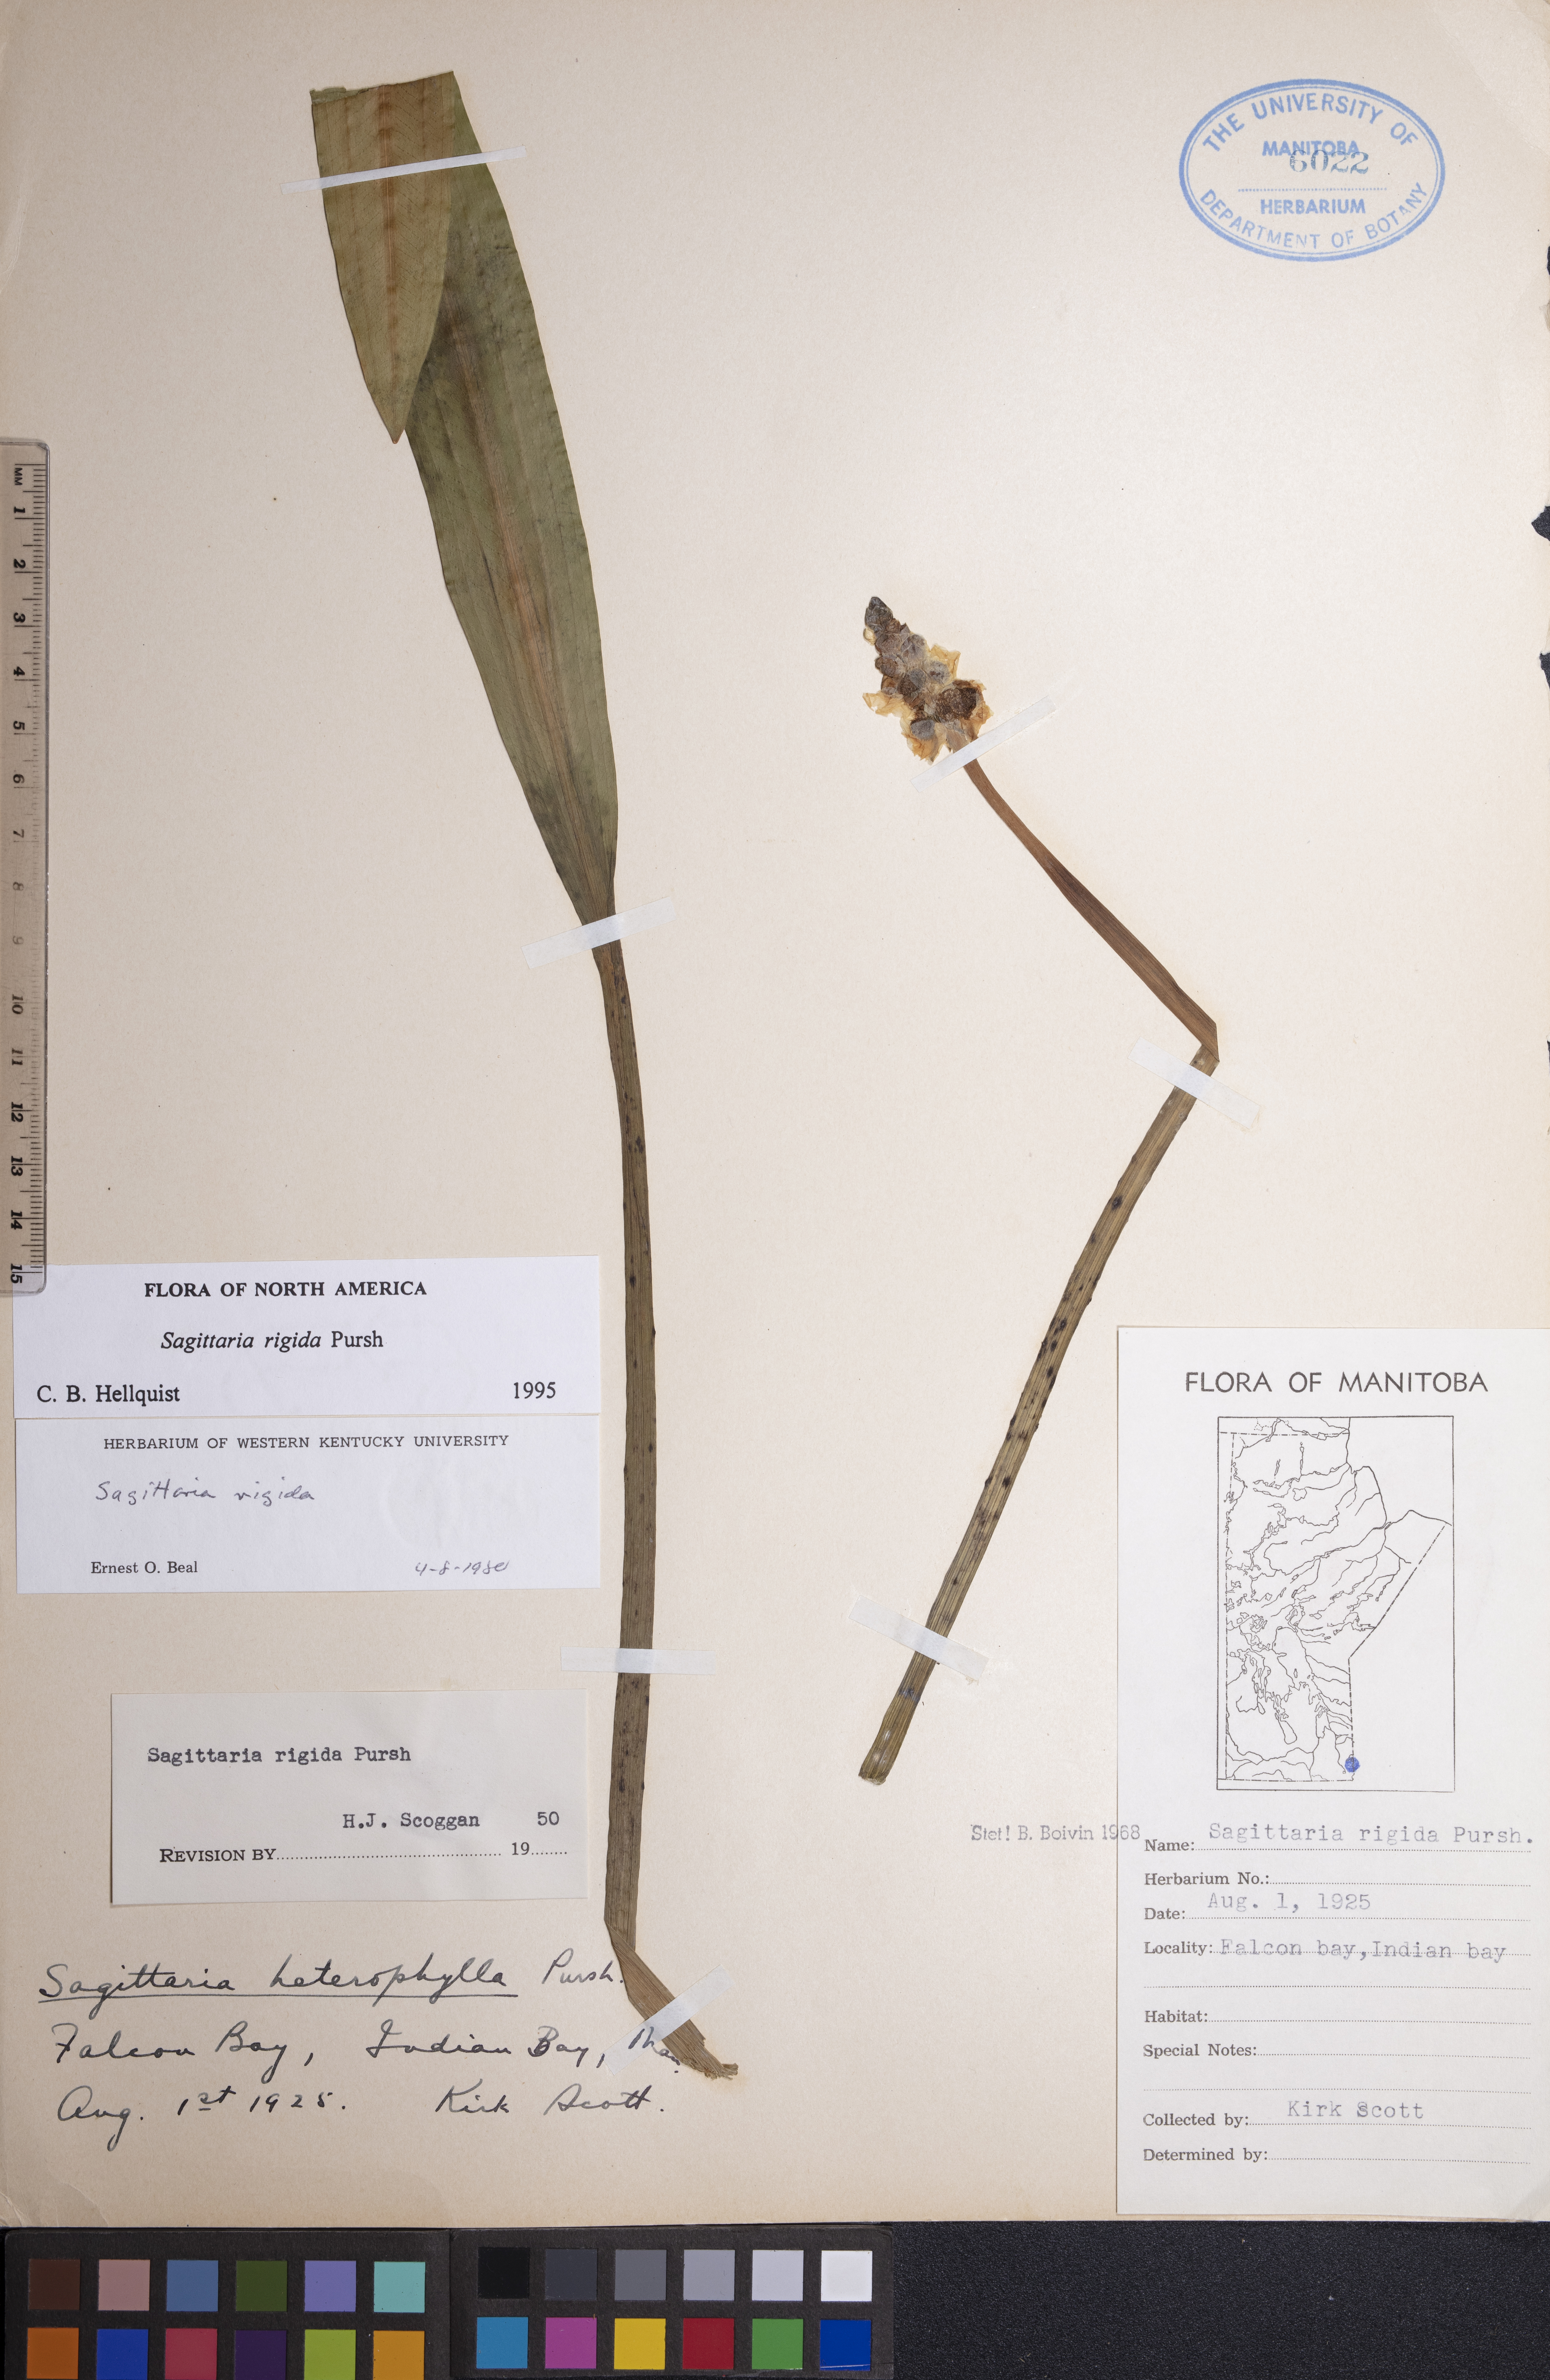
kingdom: Plantae
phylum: Tracheophyta
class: Liliopsida
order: Alismatales
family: Alismataceae
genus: Sagittaria
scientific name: Sagittaria rigida
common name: Canadian arrowhead
